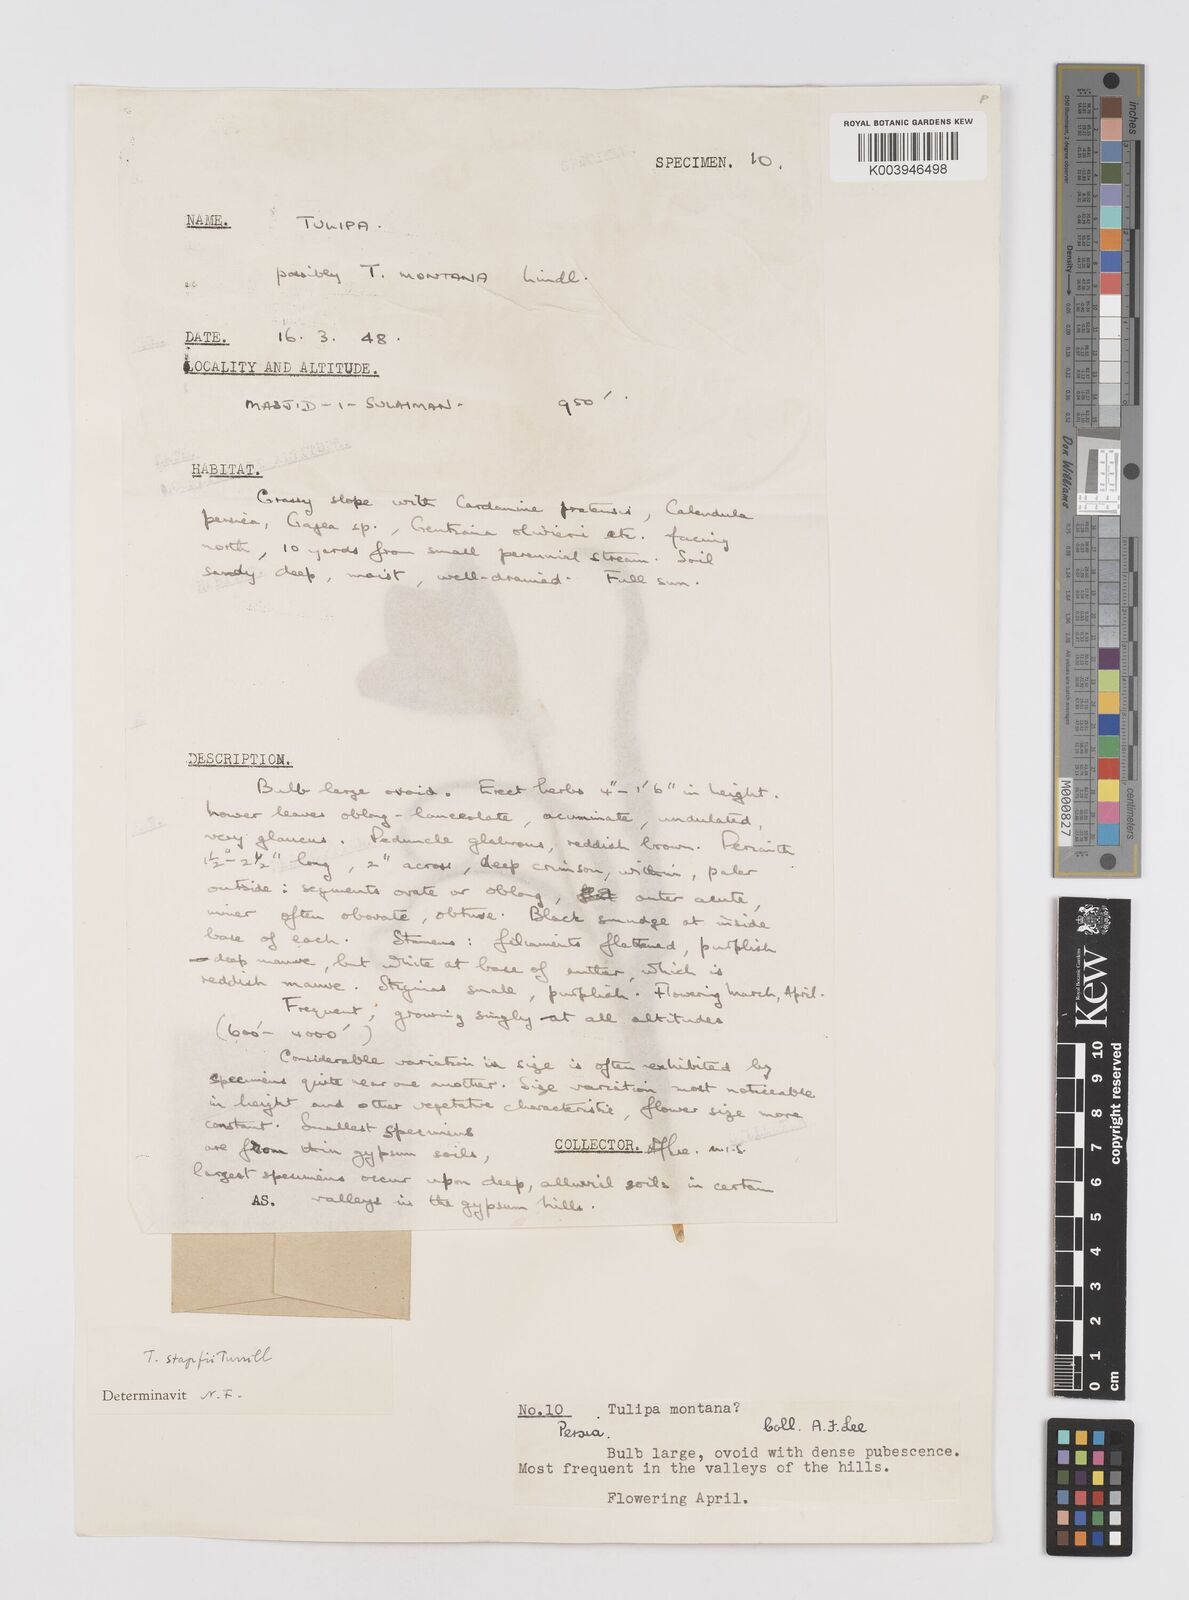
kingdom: Plantae
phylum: Tracheophyta
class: Liliopsida
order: Liliales
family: Liliaceae
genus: Tulipa
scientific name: Tulipa systola
